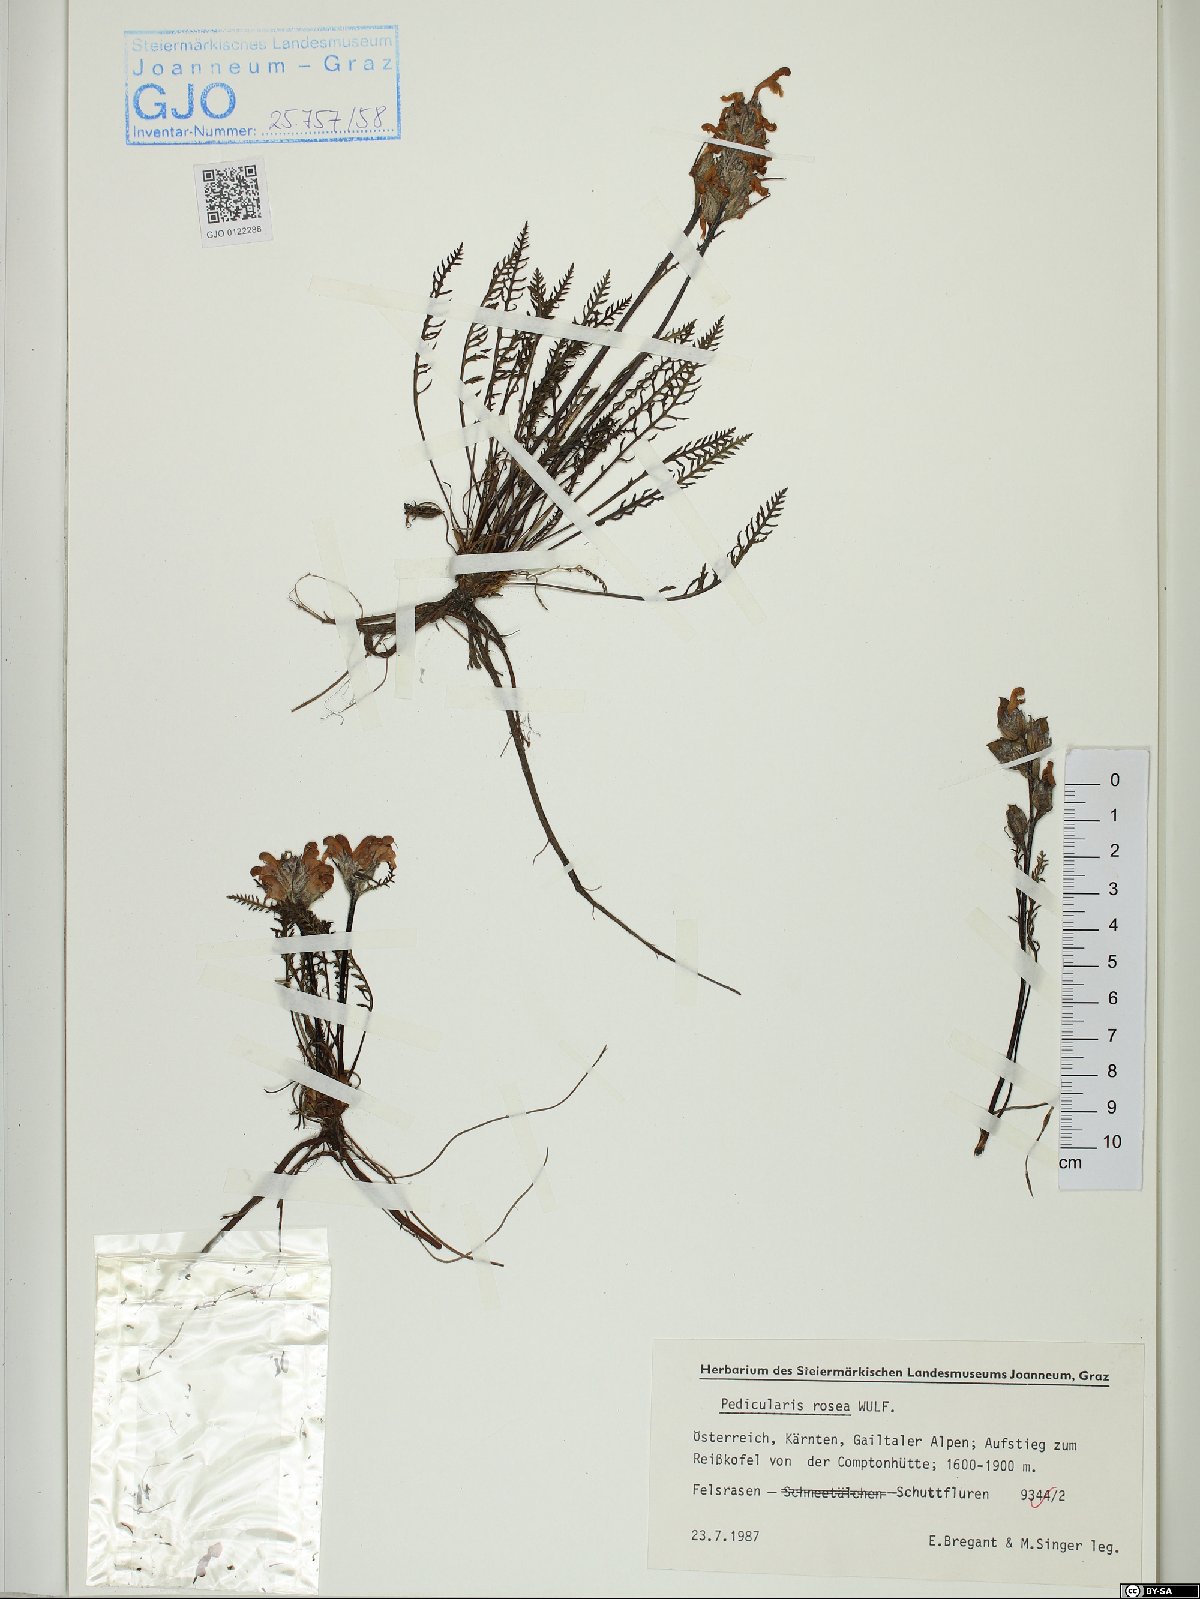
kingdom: Plantae
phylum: Tracheophyta
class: Magnoliopsida
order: Lamiales
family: Orobanchaceae
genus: Pedicularis
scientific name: Pedicularis rosea
